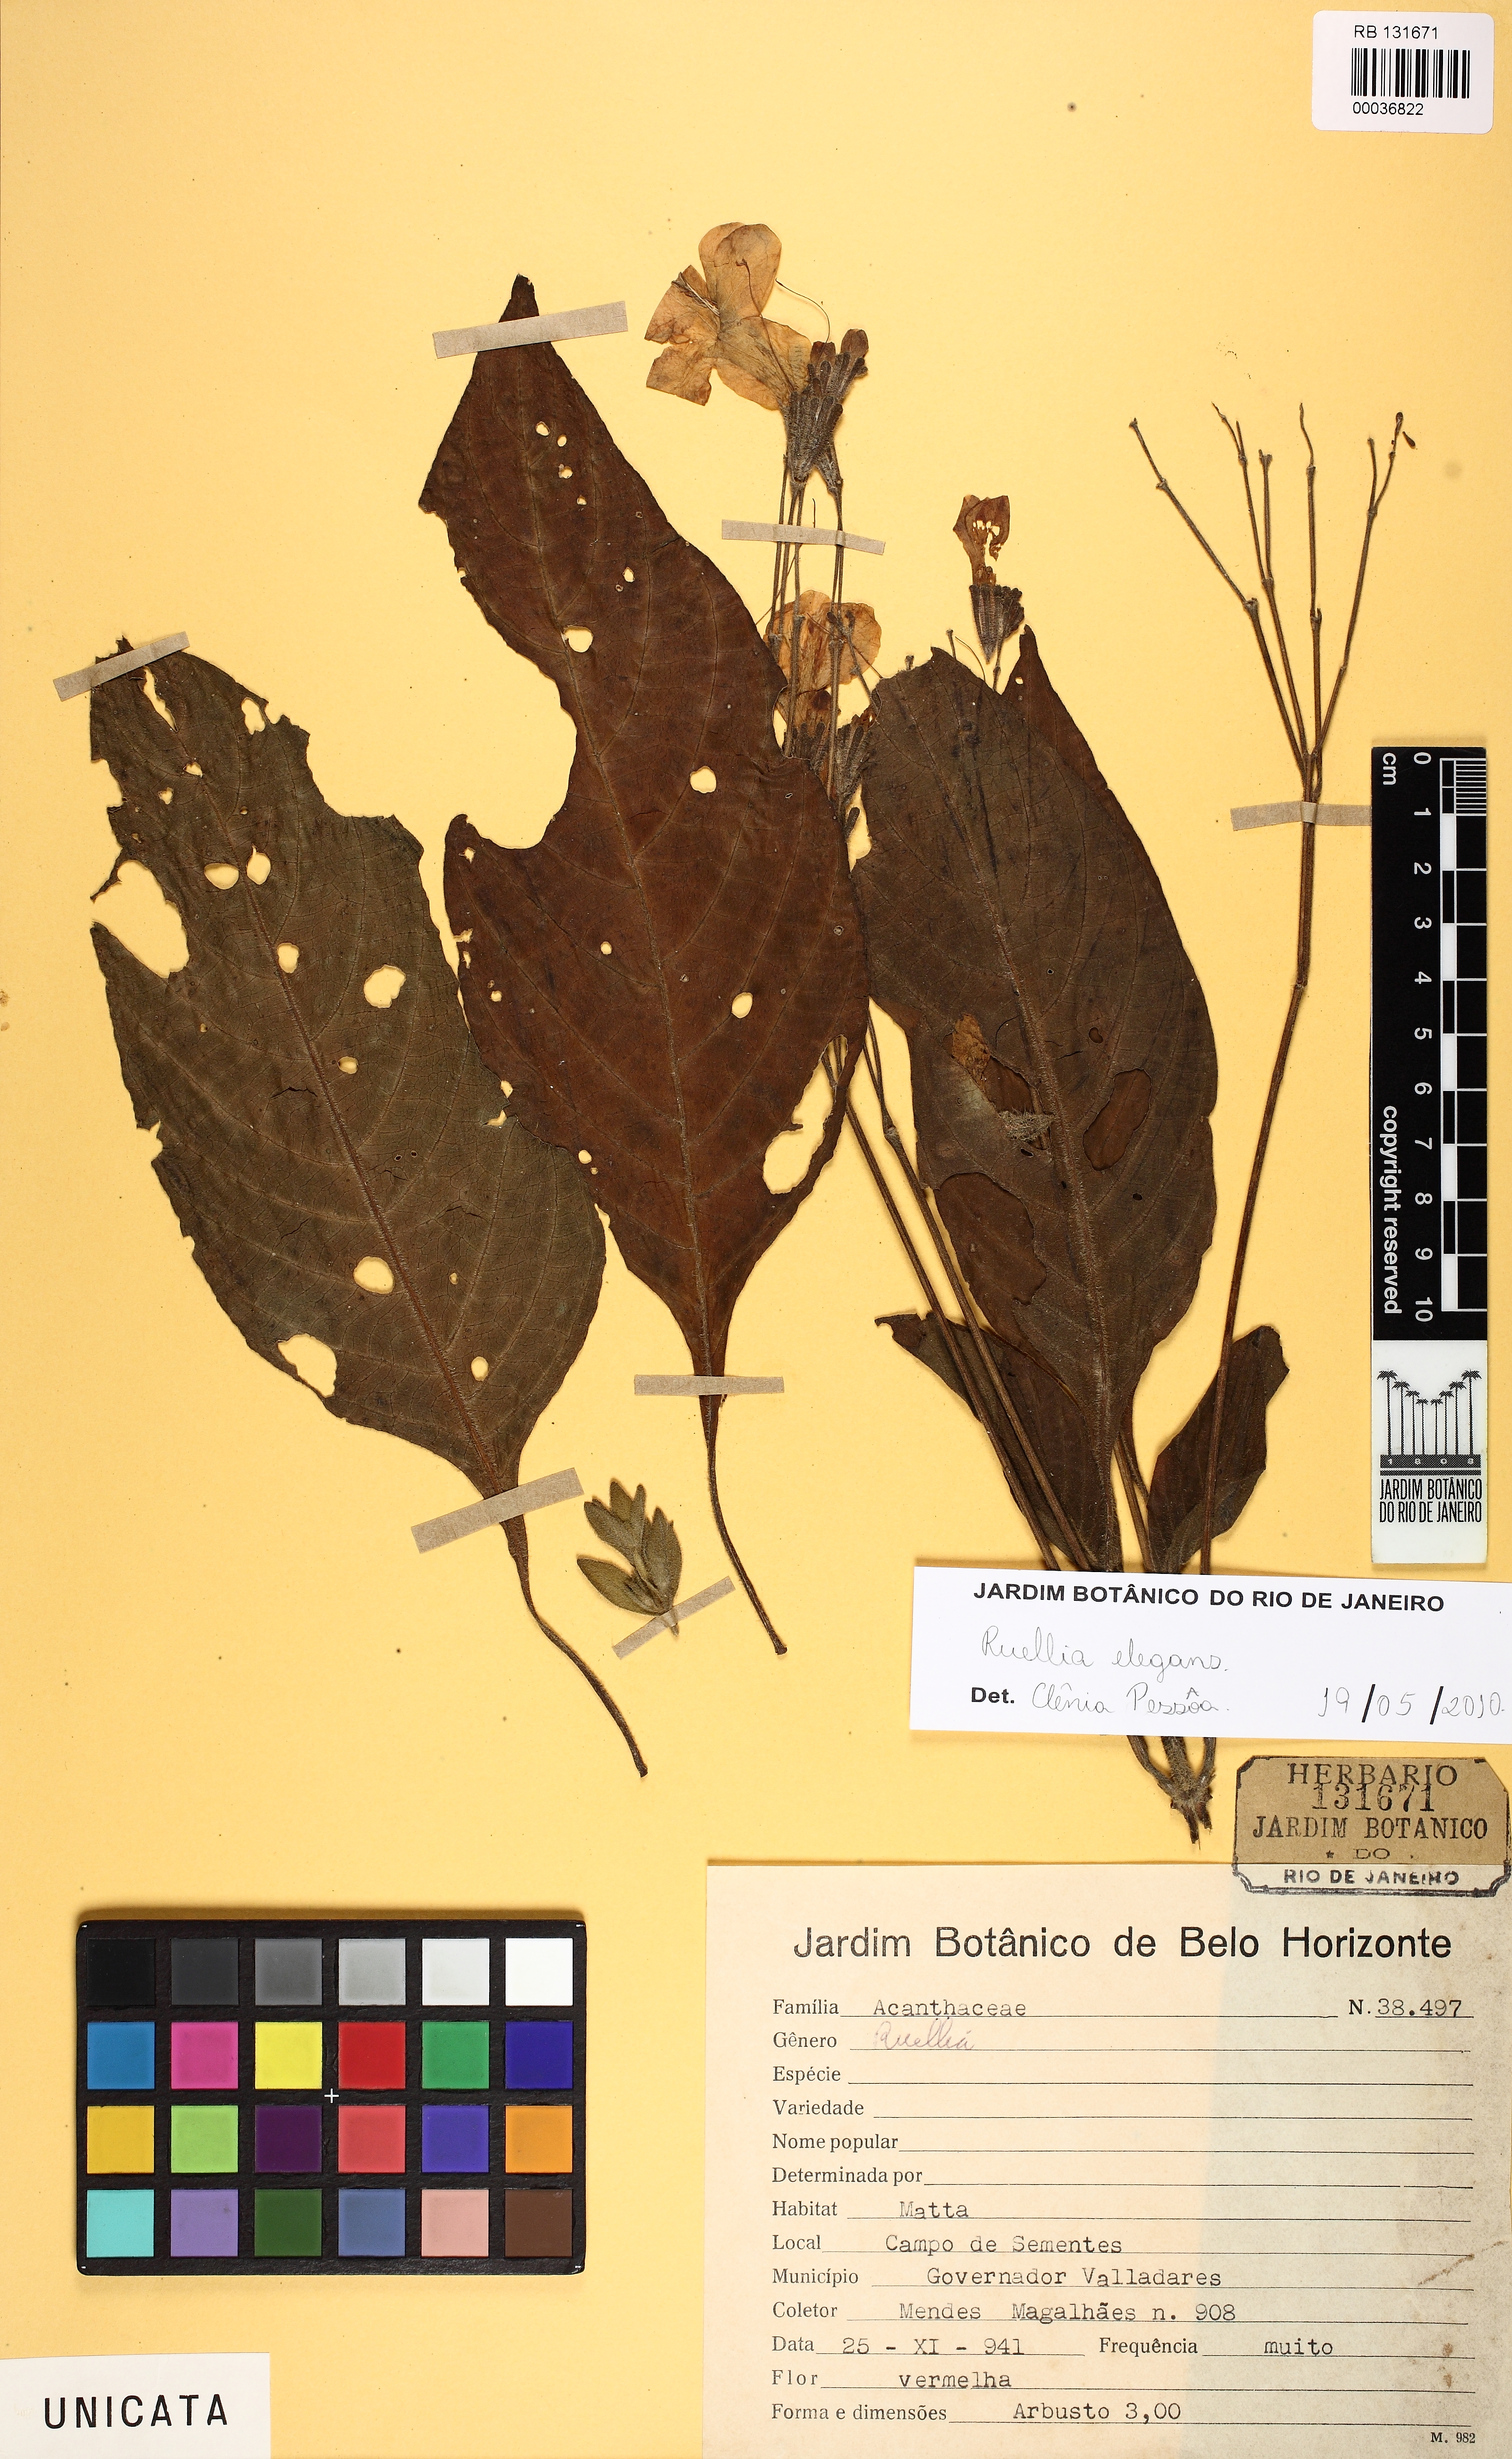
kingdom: Plantae
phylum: Tracheophyta
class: Magnoliopsida
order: Lamiales
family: Acanthaceae
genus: Ruellia
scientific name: Ruellia sceptrum-marianum
